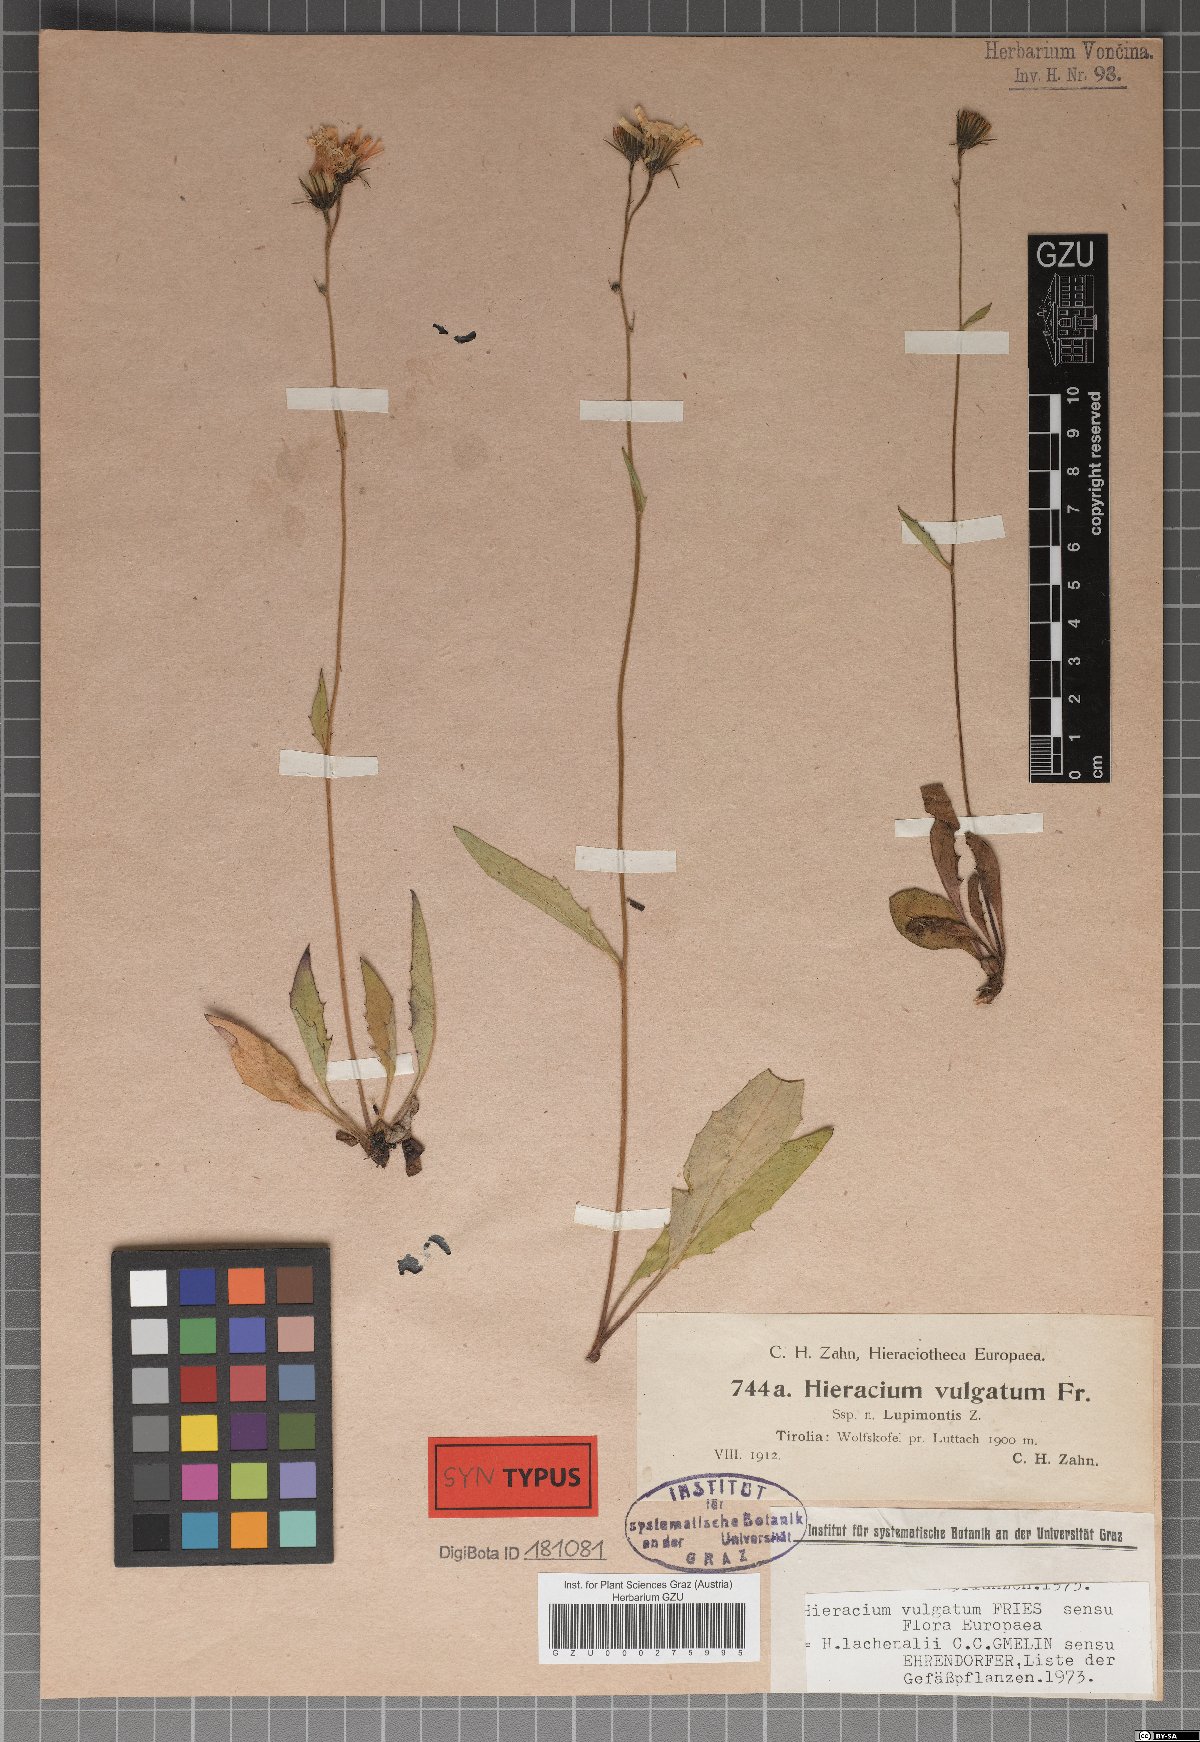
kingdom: Plantae
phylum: Tracheophyta
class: Magnoliopsida
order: Asterales
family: Asteraceae
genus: Hieracium
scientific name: Hieracium lachenalii
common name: Common hawkweed
